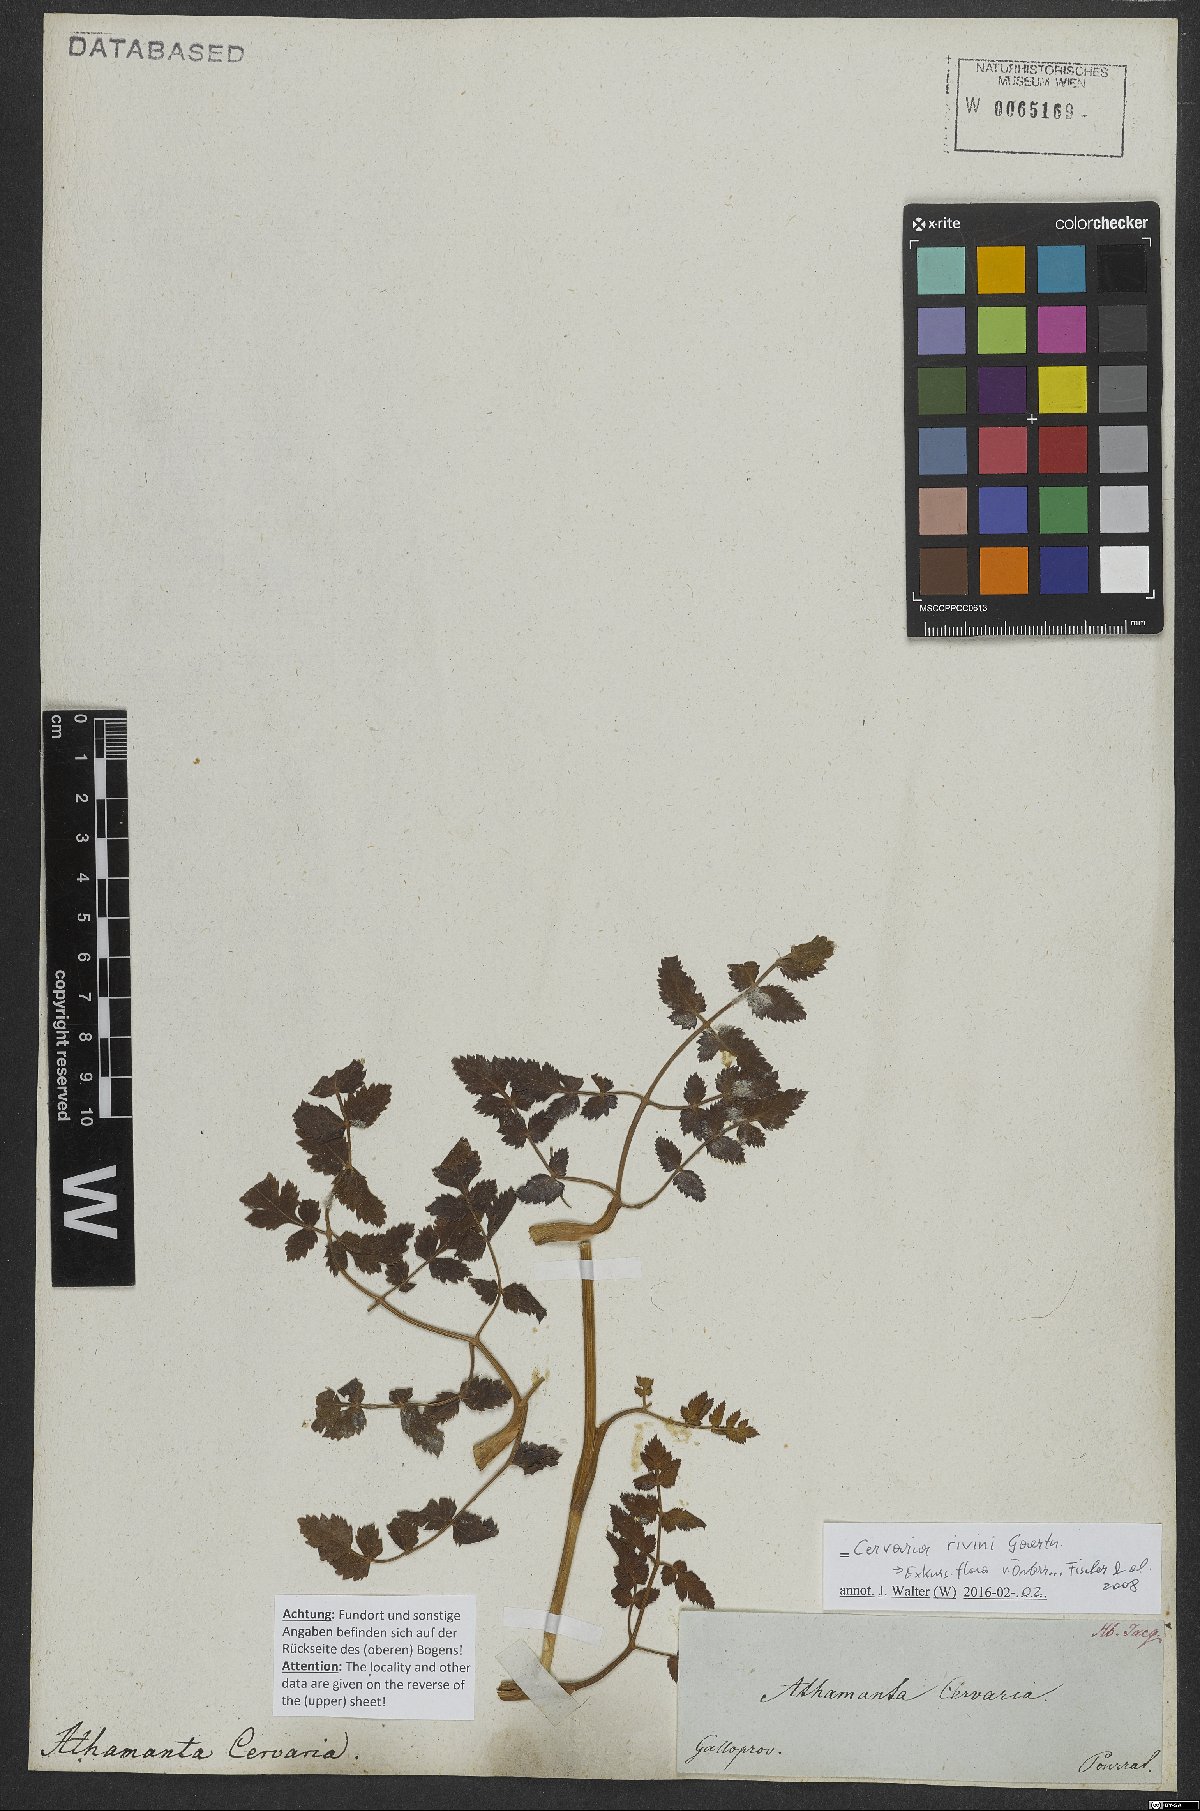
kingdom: Plantae
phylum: Tracheophyta
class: Magnoliopsida
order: Apiales
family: Apiaceae
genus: Cervaria
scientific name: Cervaria rivini
